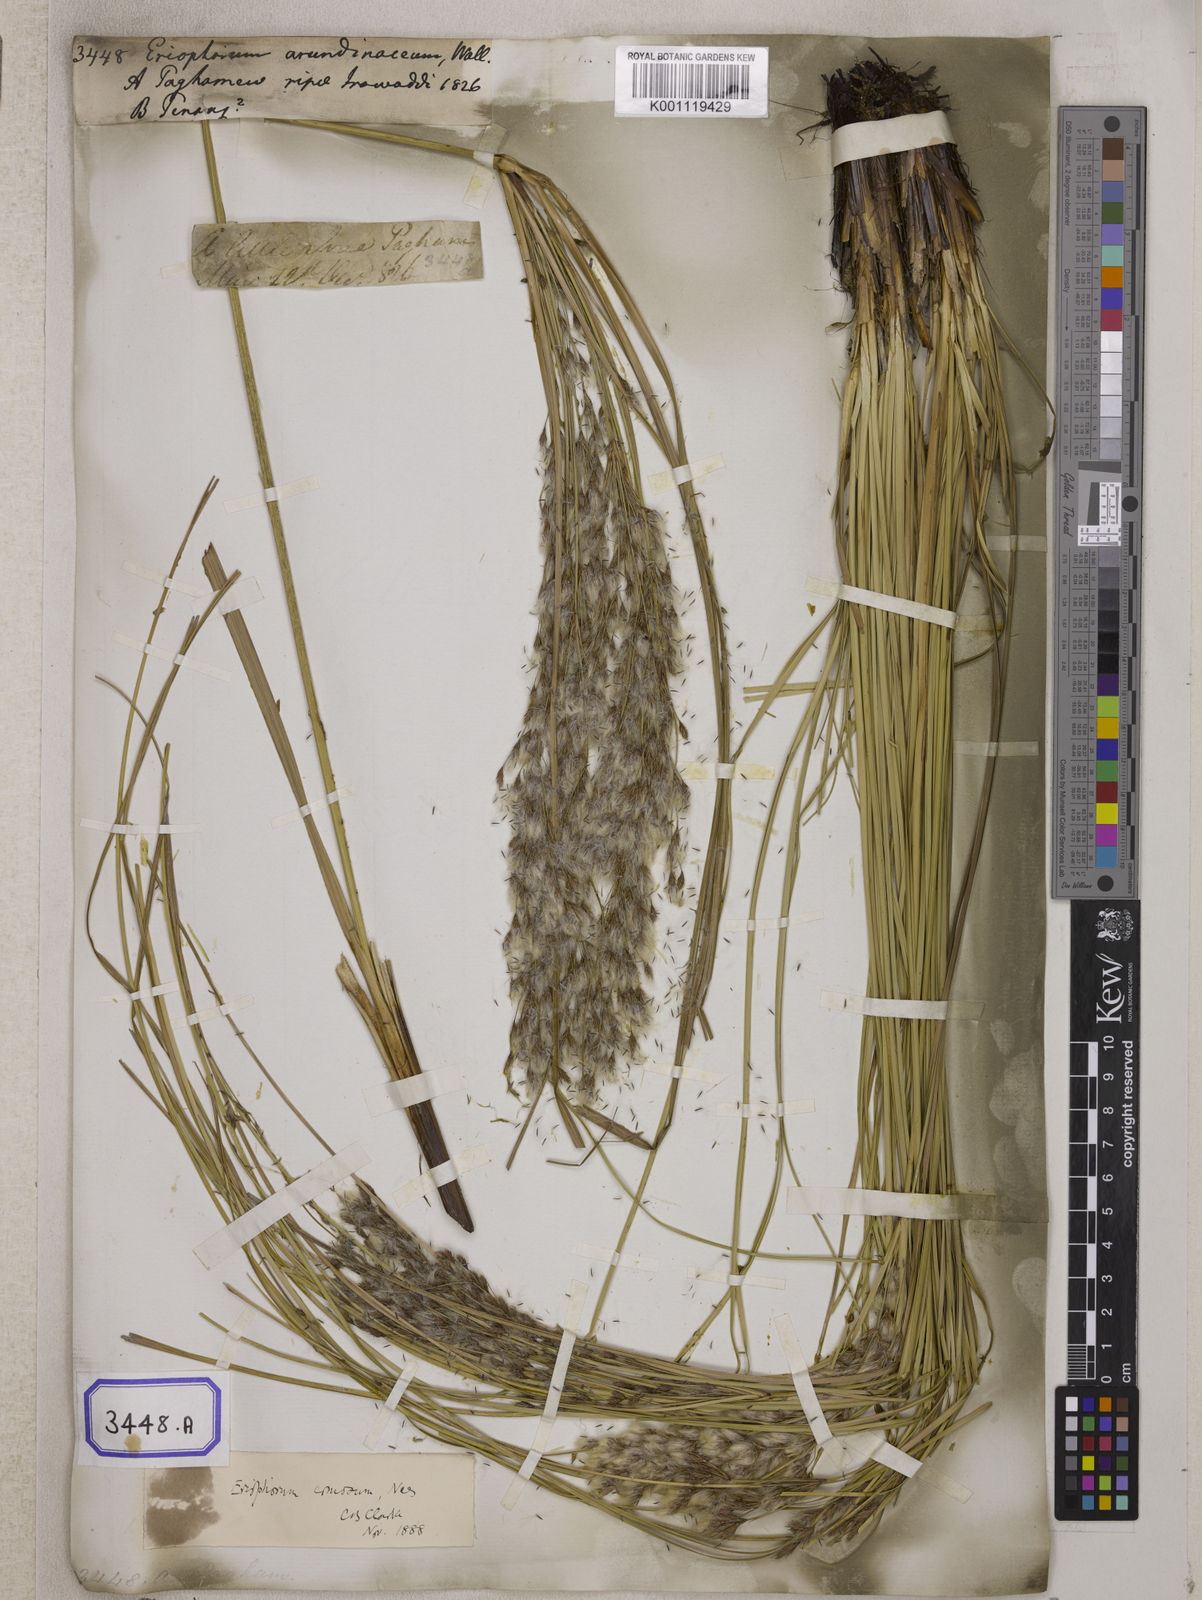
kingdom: Plantae
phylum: Tracheophyta
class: Liliopsida
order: Poales
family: Cyperaceae
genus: Erioscirpus
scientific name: Erioscirpus comosus
